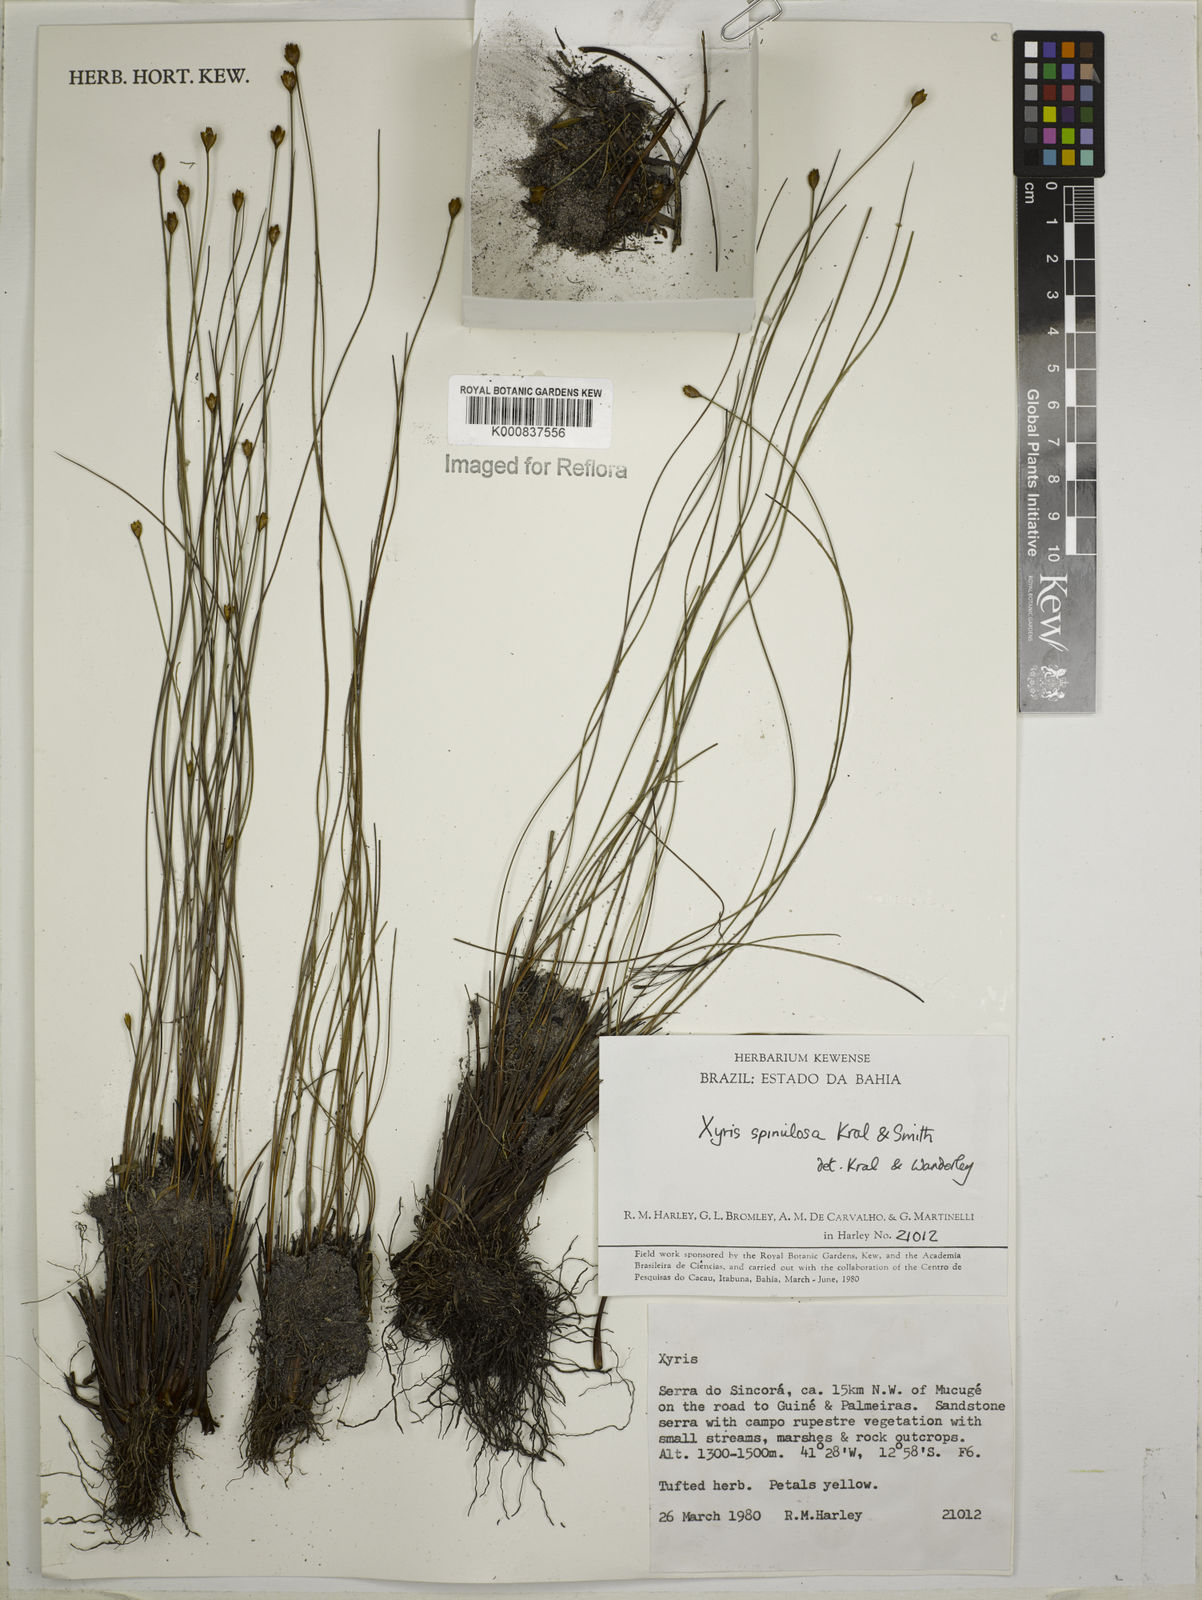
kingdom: Plantae
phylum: Tracheophyta
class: Liliopsida
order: Poales
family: Xyridaceae
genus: Xyris
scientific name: Xyris spinulosa
